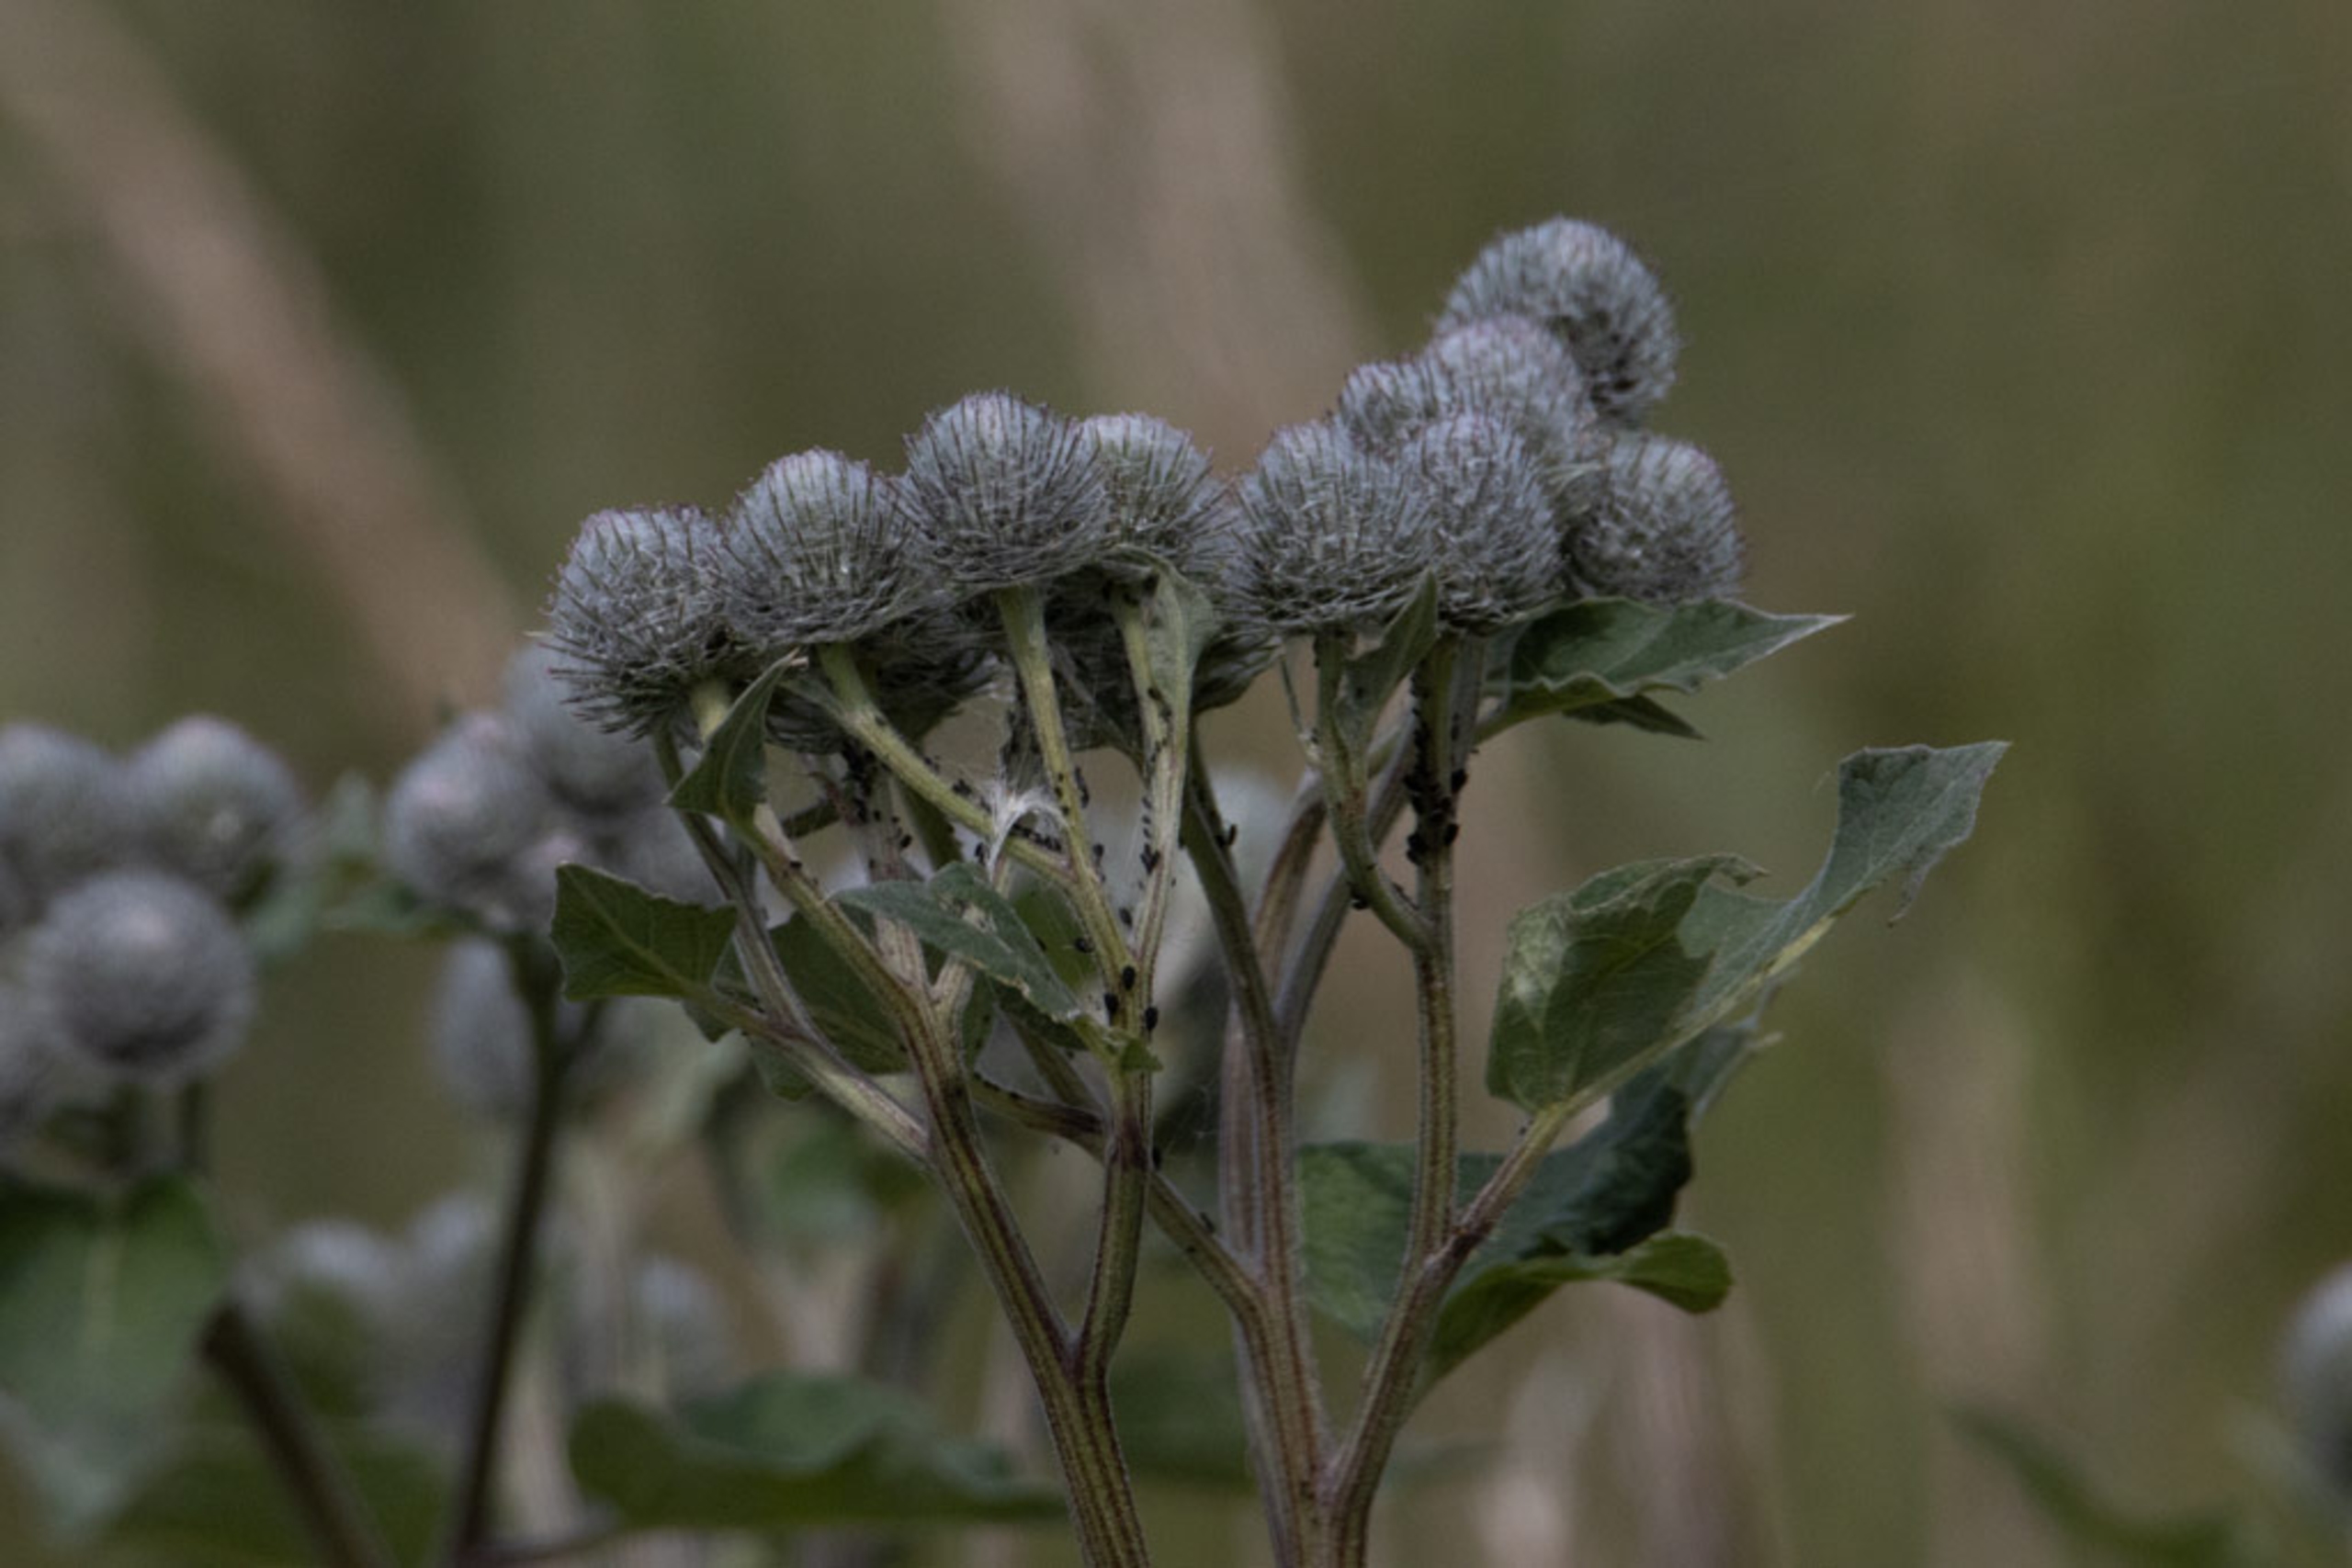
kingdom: Plantae
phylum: Tracheophyta
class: Magnoliopsida
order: Asterales
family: Asteraceae
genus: Arctium
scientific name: Arctium tomentosum
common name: Filtet burre
